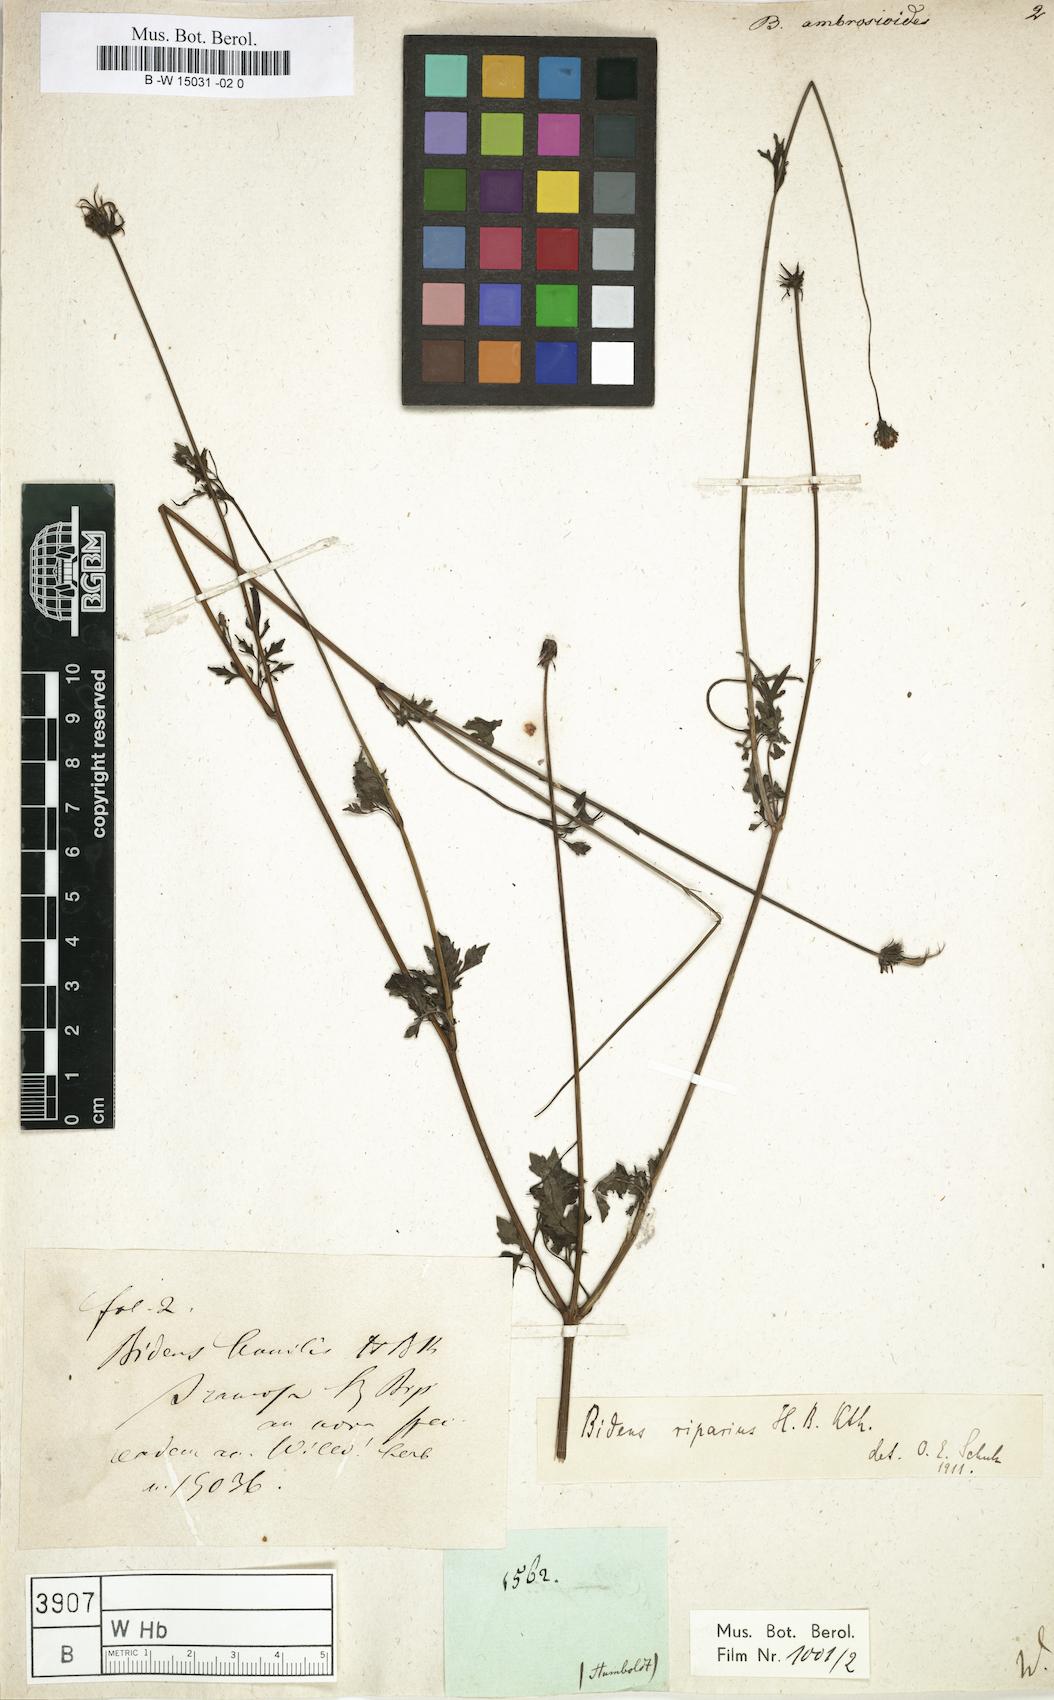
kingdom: Plantae
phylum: Tracheophyta
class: Magnoliopsida
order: Asterales
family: Asteraceae
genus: Bidens
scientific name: Bidens
